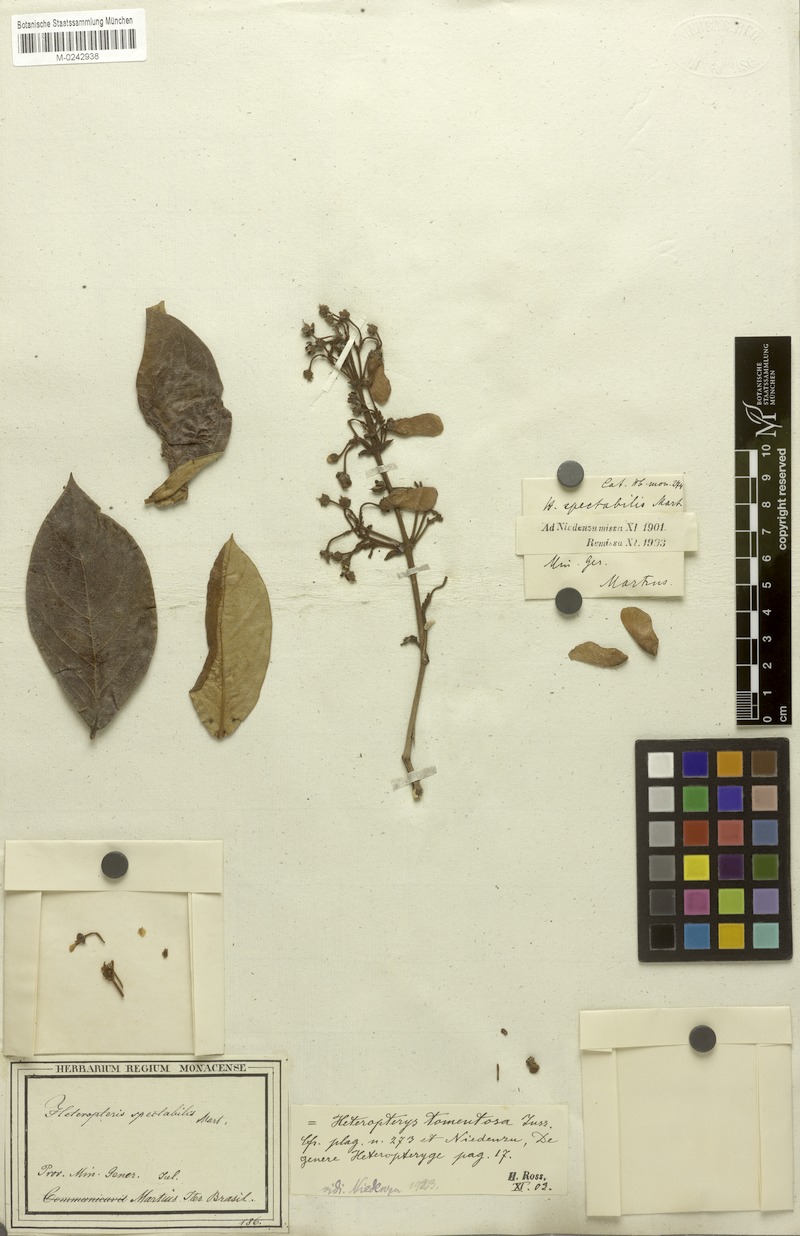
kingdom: Plantae
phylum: Tracheophyta
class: Magnoliopsida
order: Malpighiales
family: Malpighiaceae
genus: Heteropterys
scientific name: Heteropterys tomentosa
